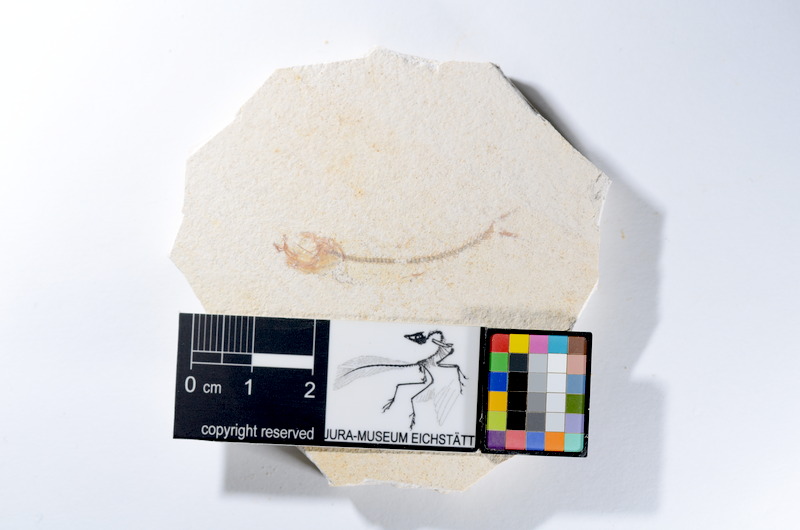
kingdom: Animalia
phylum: Chordata
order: Salmoniformes
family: Orthogonikleithridae
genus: Orthogonikleithrus
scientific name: Orthogonikleithrus hoelli
